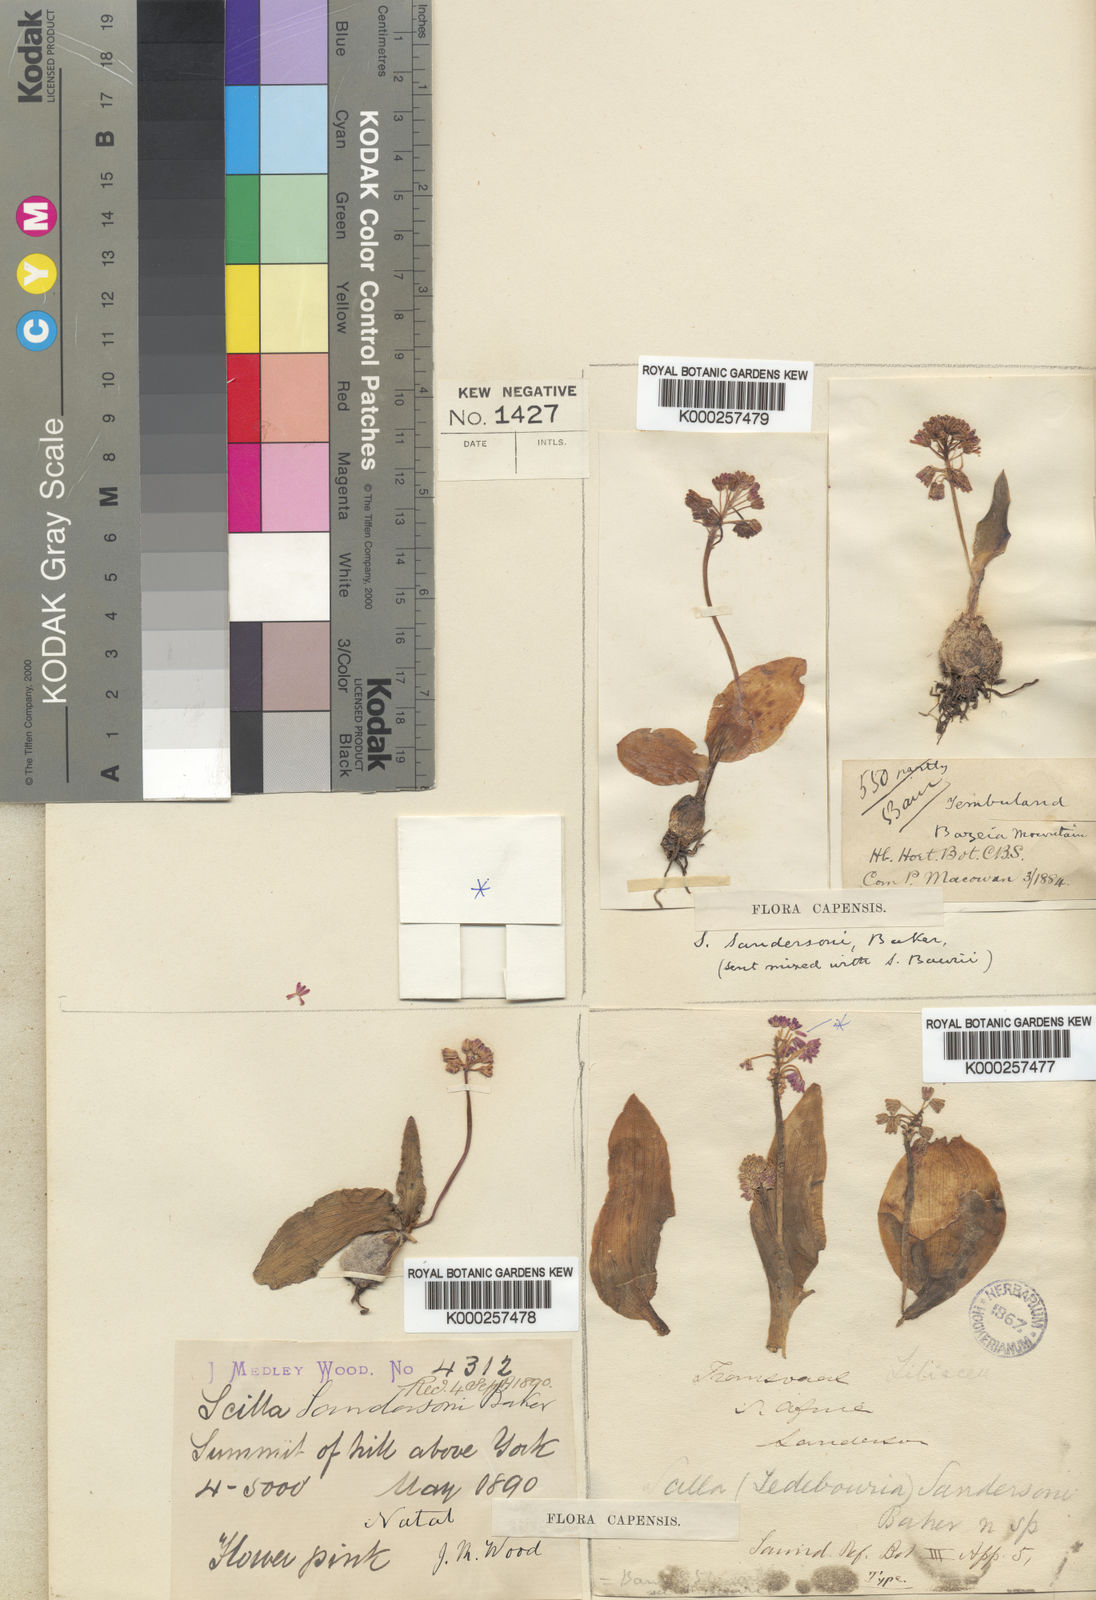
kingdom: Plantae
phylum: Tracheophyta
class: Liliopsida
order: Asparagales
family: Asparagaceae
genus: Ledebouria
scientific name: Ledebouria sandersonii
